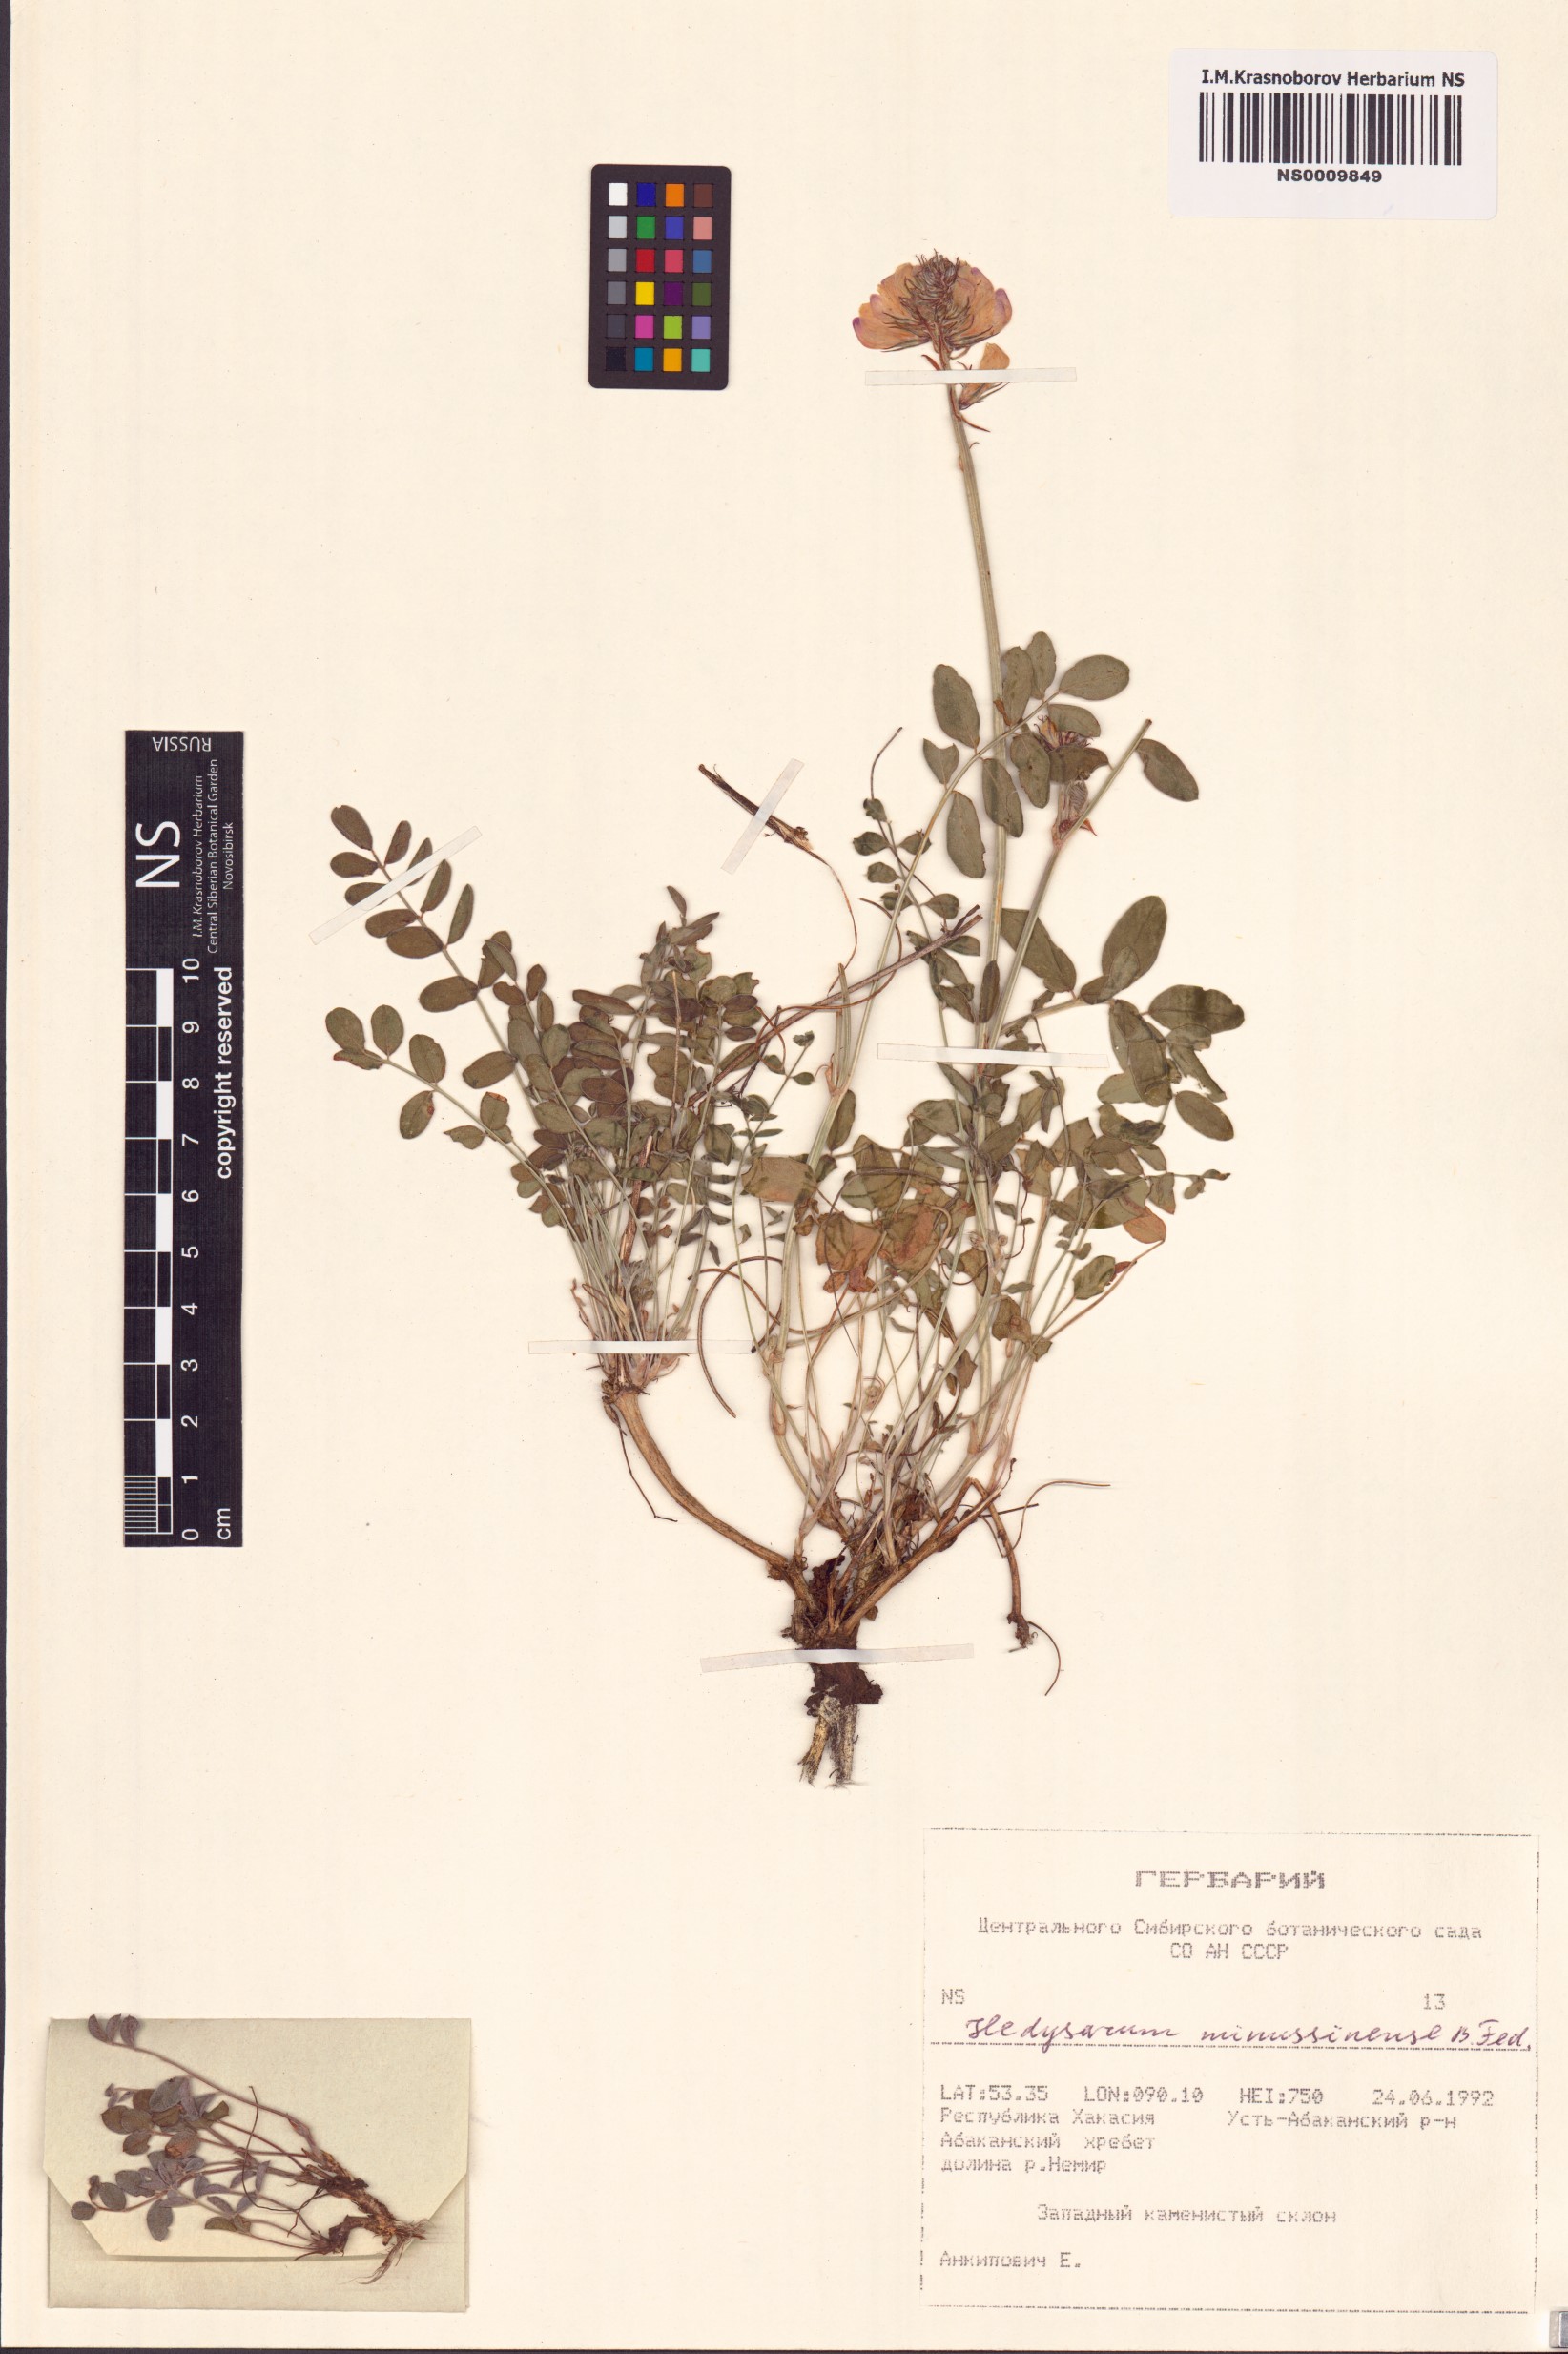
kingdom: Plantae
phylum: Tracheophyta
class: Magnoliopsida
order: Fabales
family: Fabaceae
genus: Hedysarum
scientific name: Hedysarum minussinense
